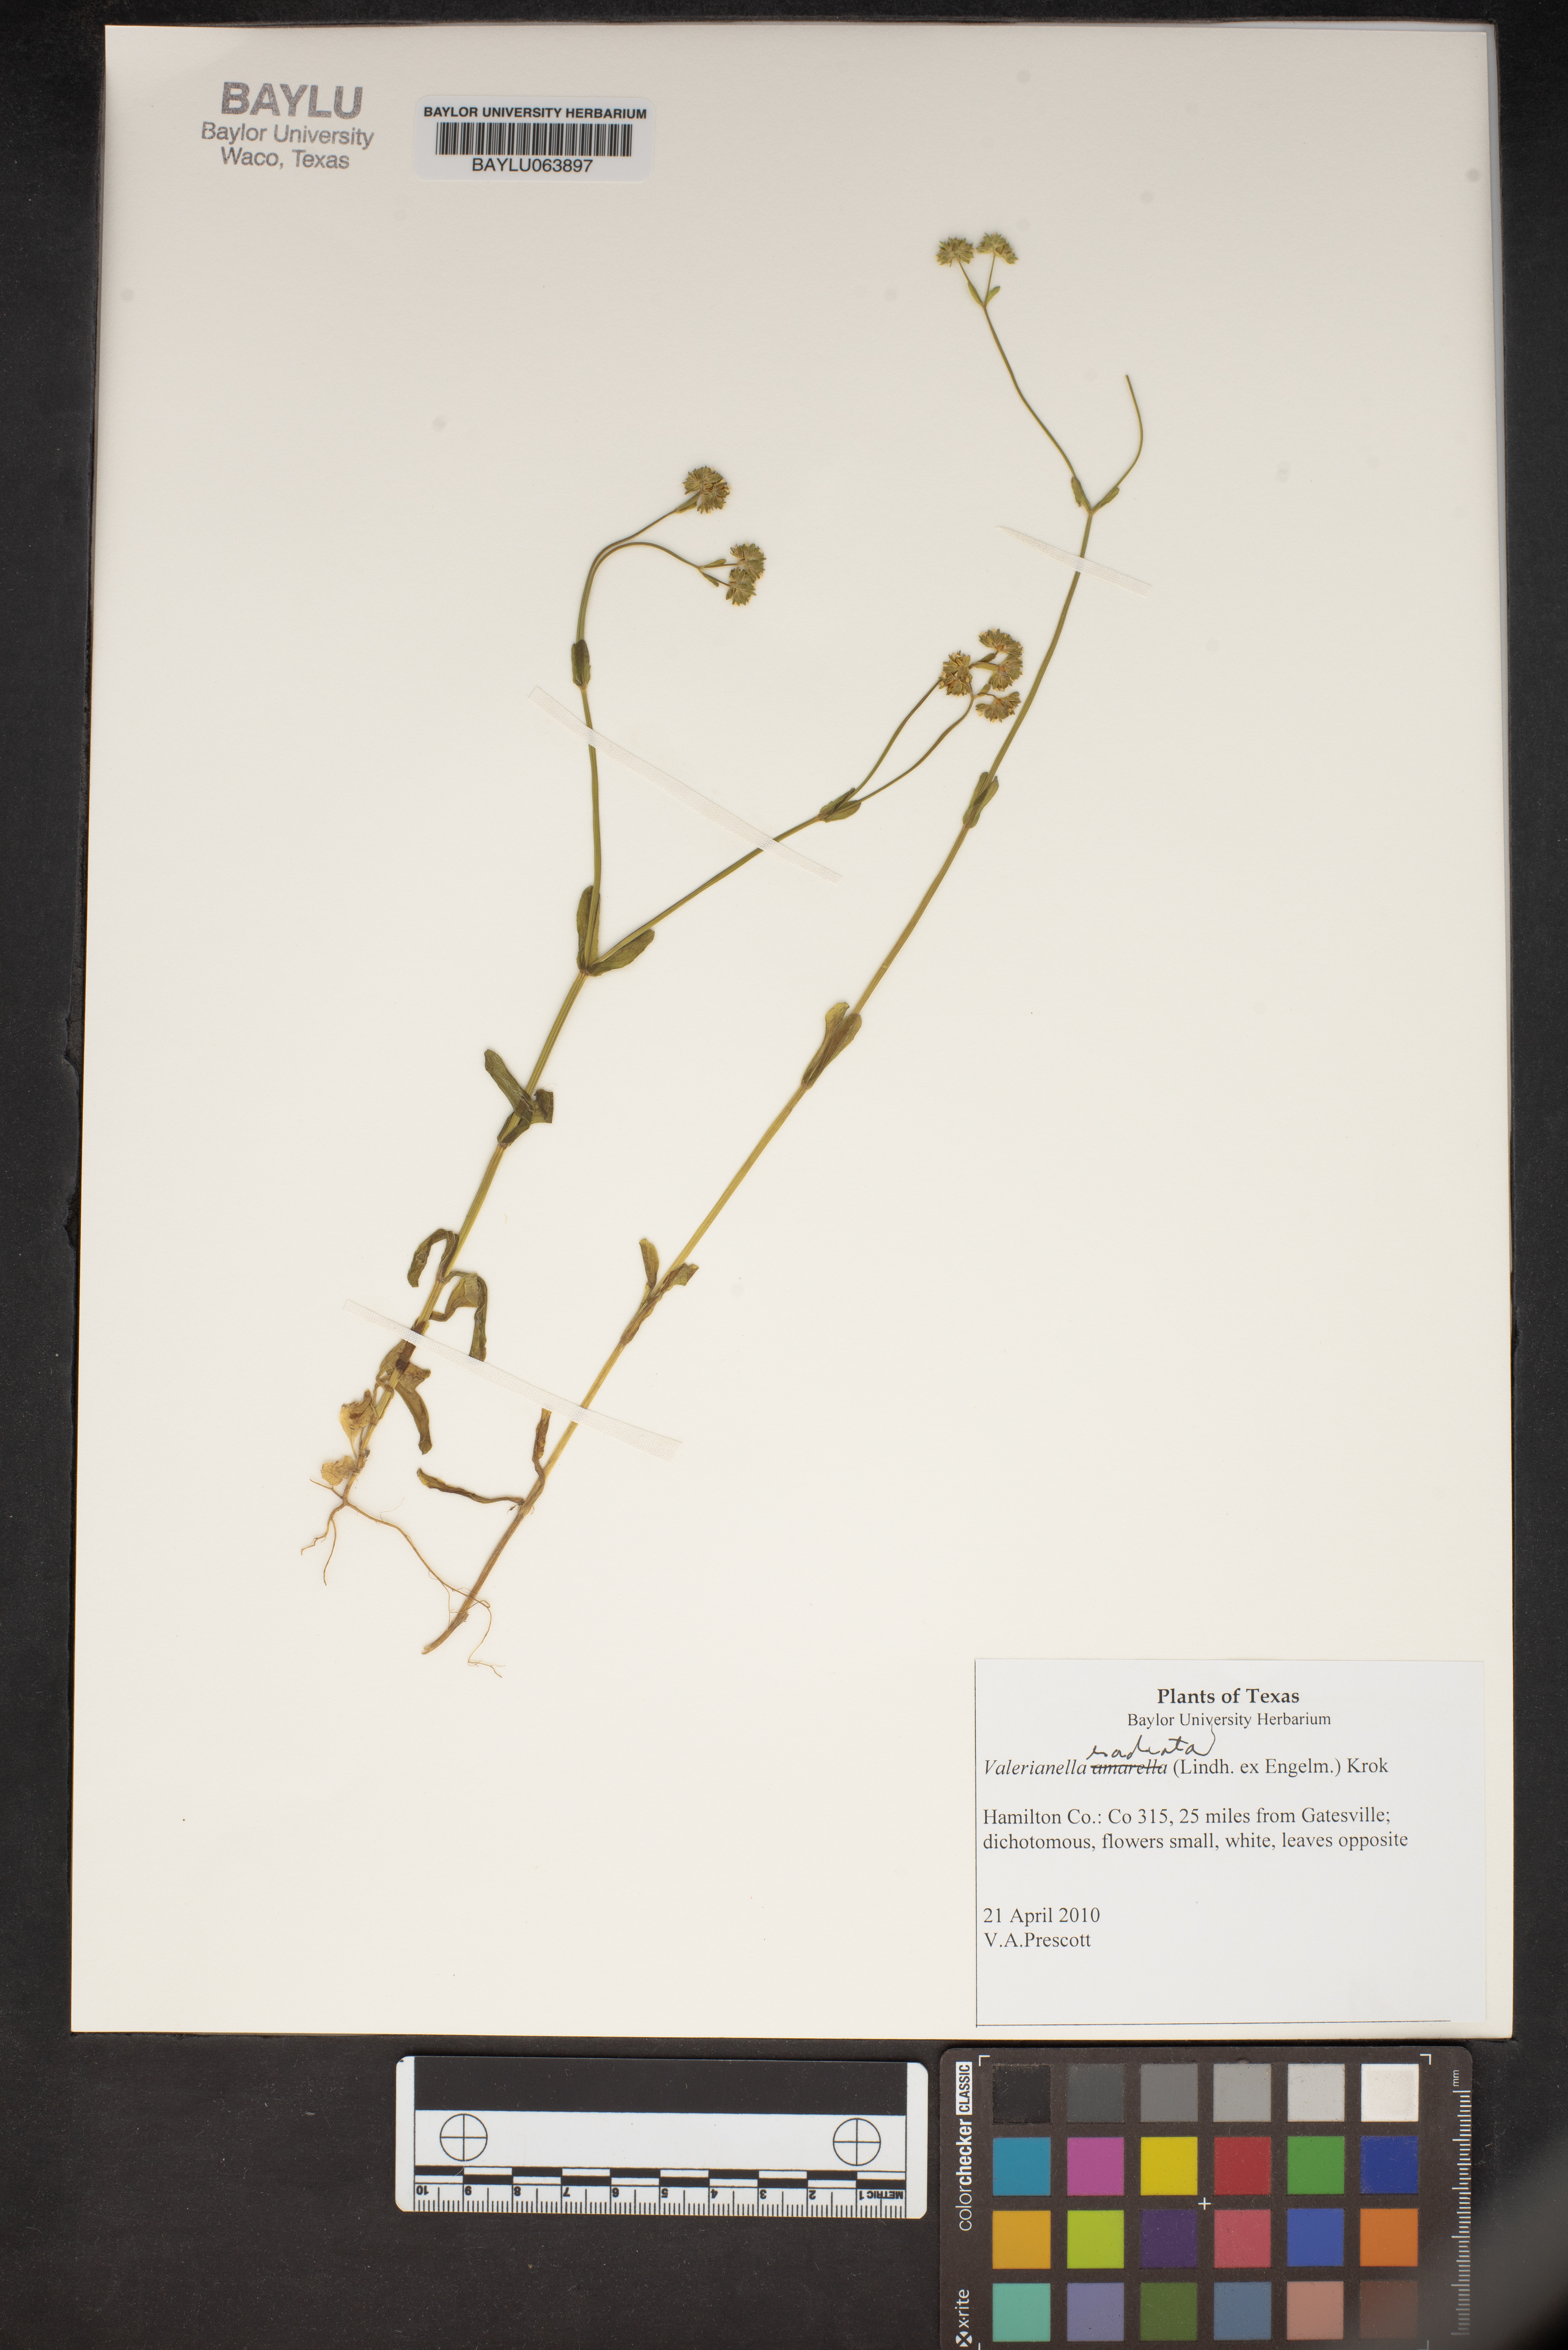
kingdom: Plantae
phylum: Tracheophyta
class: Magnoliopsida
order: Dipsacales
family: Caprifoliaceae
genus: Valerianella
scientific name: Valerianella radiata
